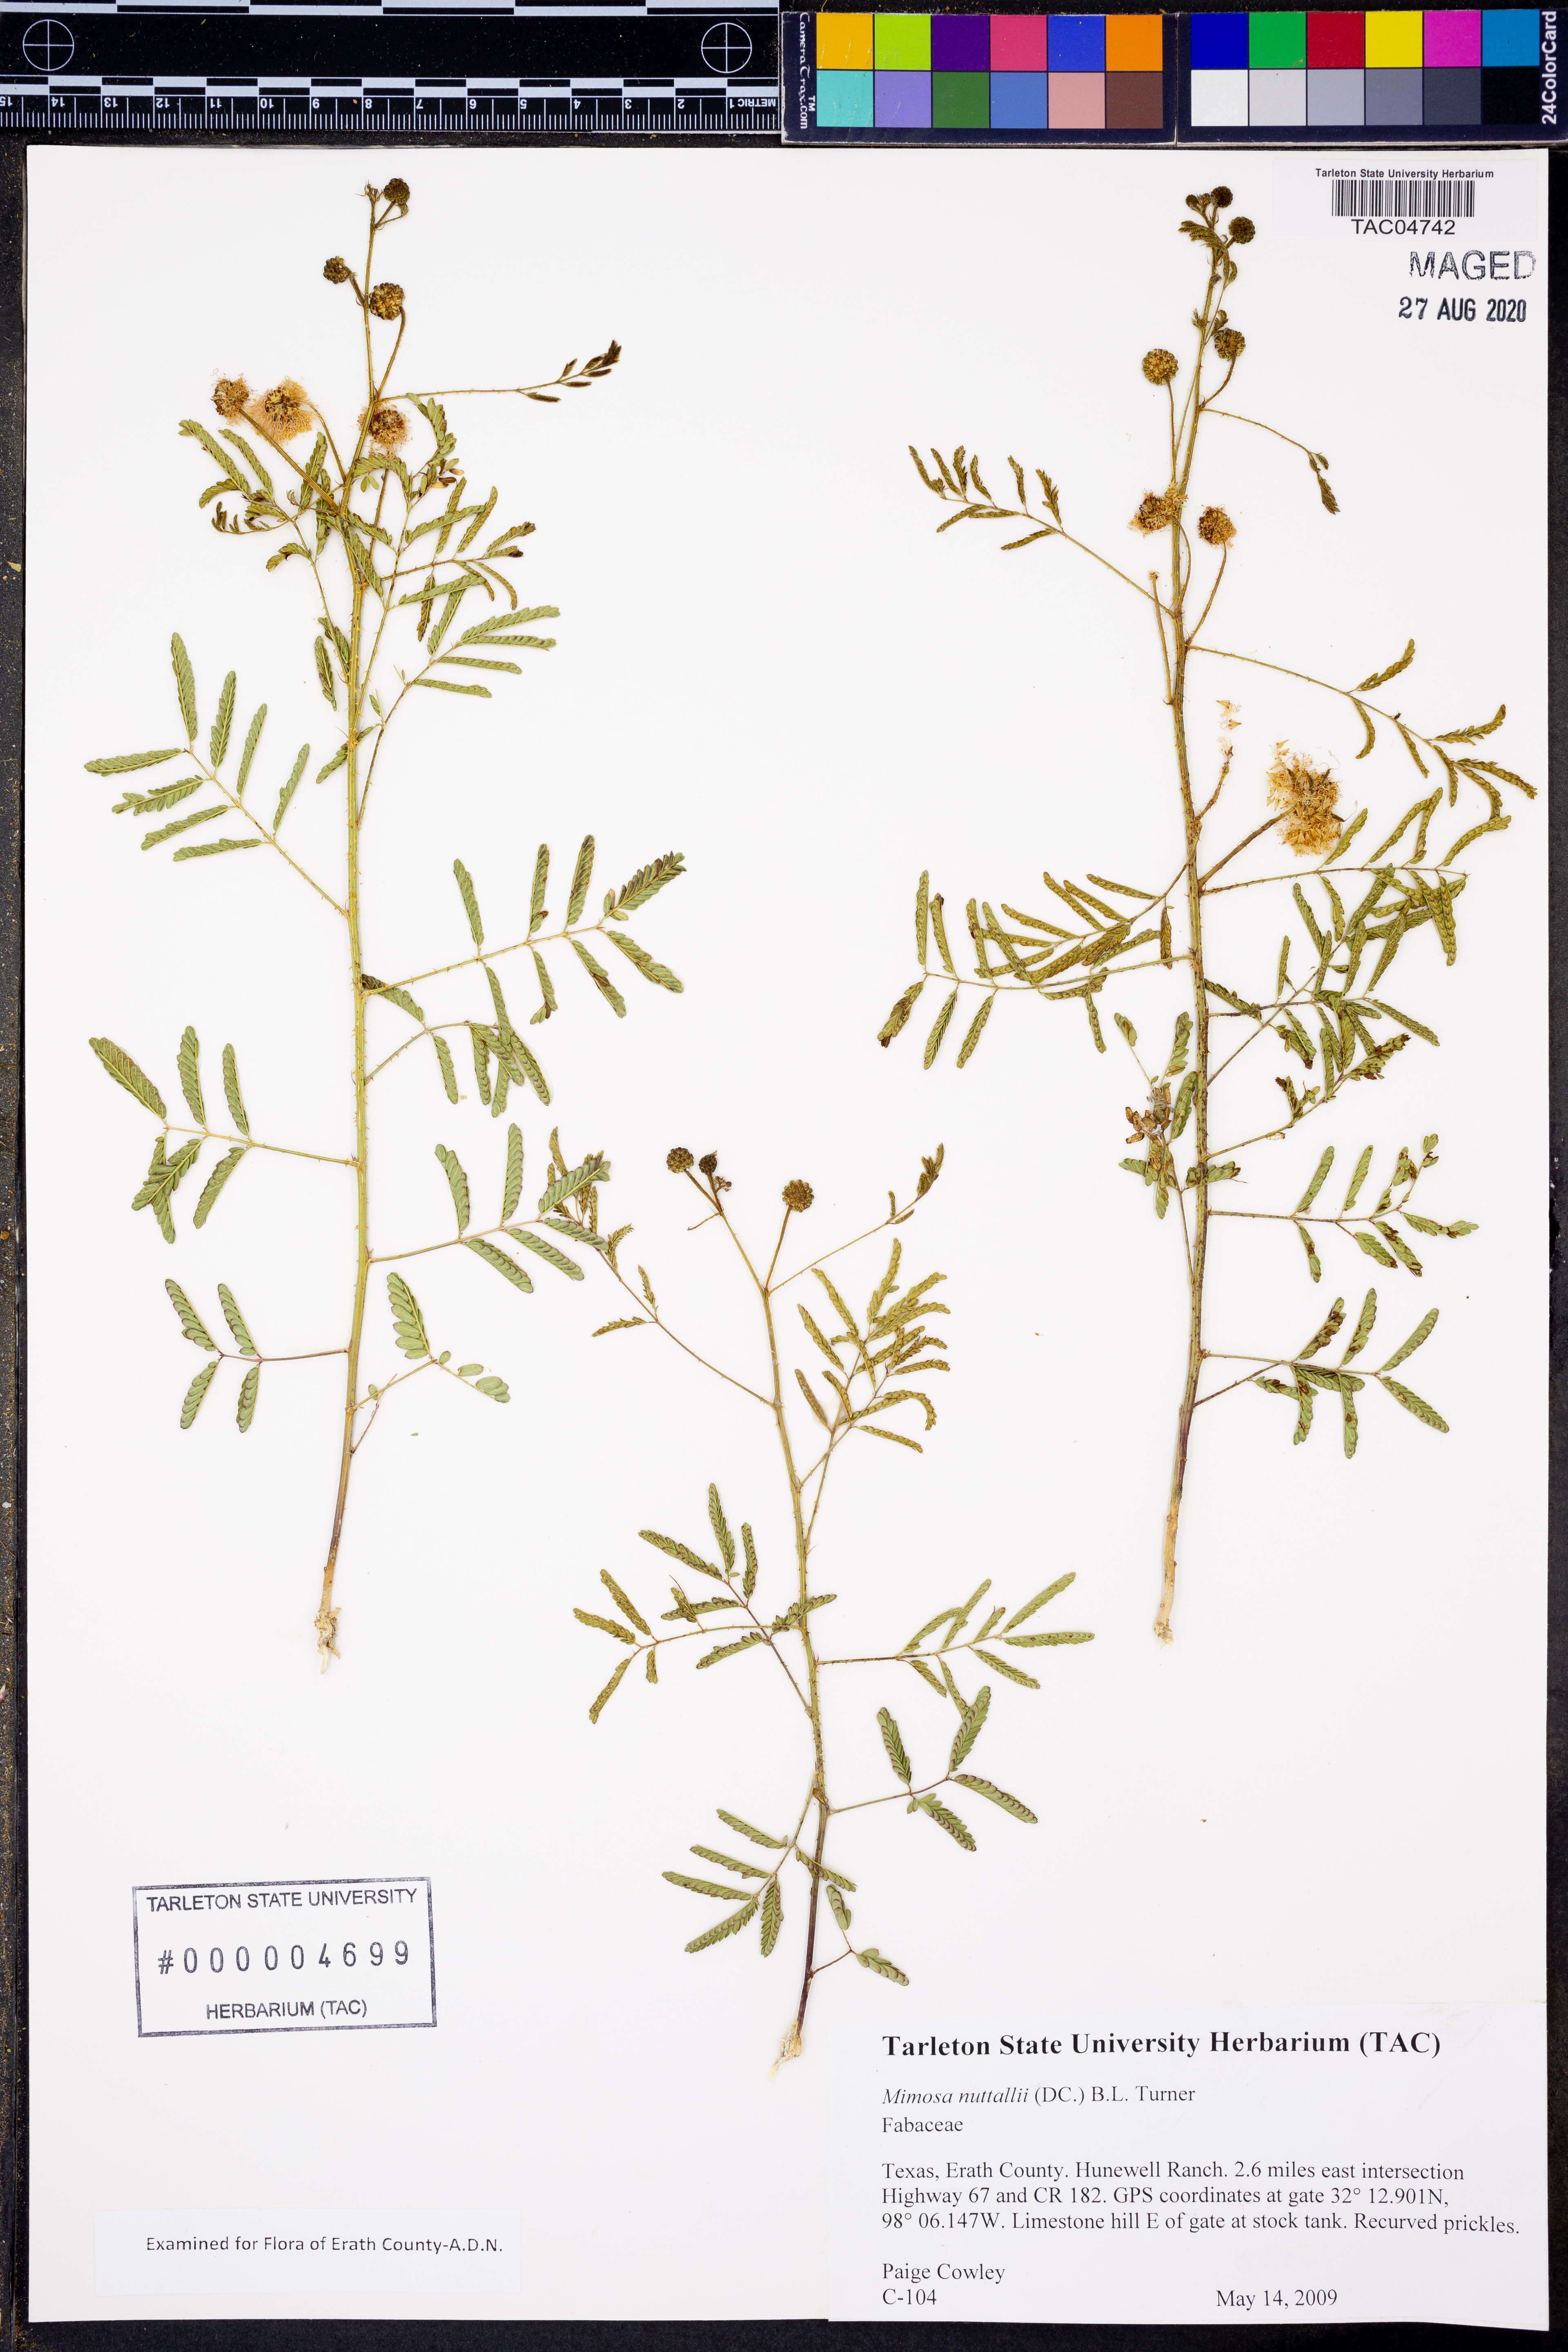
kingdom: Plantae
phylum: Tracheophyta
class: Magnoliopsida
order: Fabales
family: Fabaceae
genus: Mimosa
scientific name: Mimosa quadrivalvis
